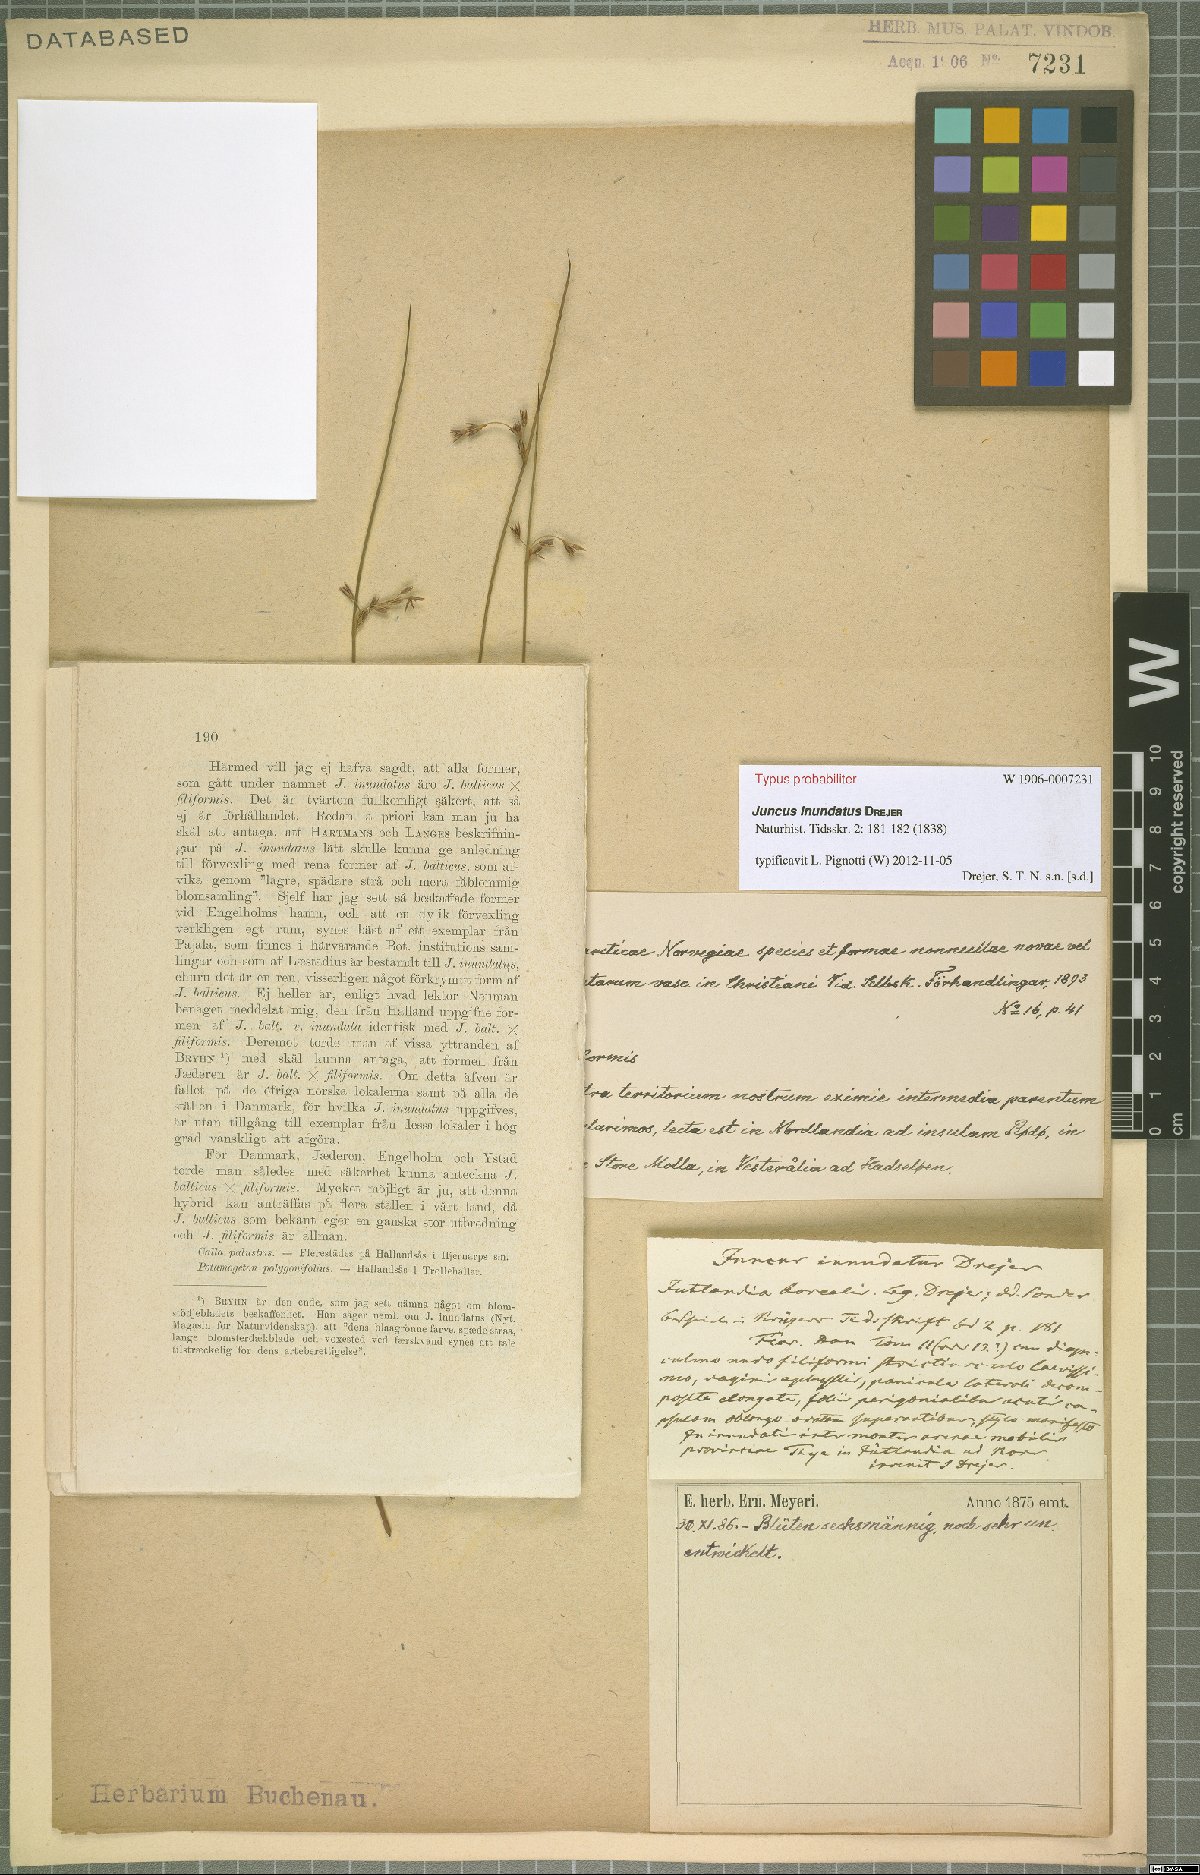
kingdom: Plantae
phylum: Tracheophyta
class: Liliopsida
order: Poales
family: Juncaceae
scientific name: Juncaceae
